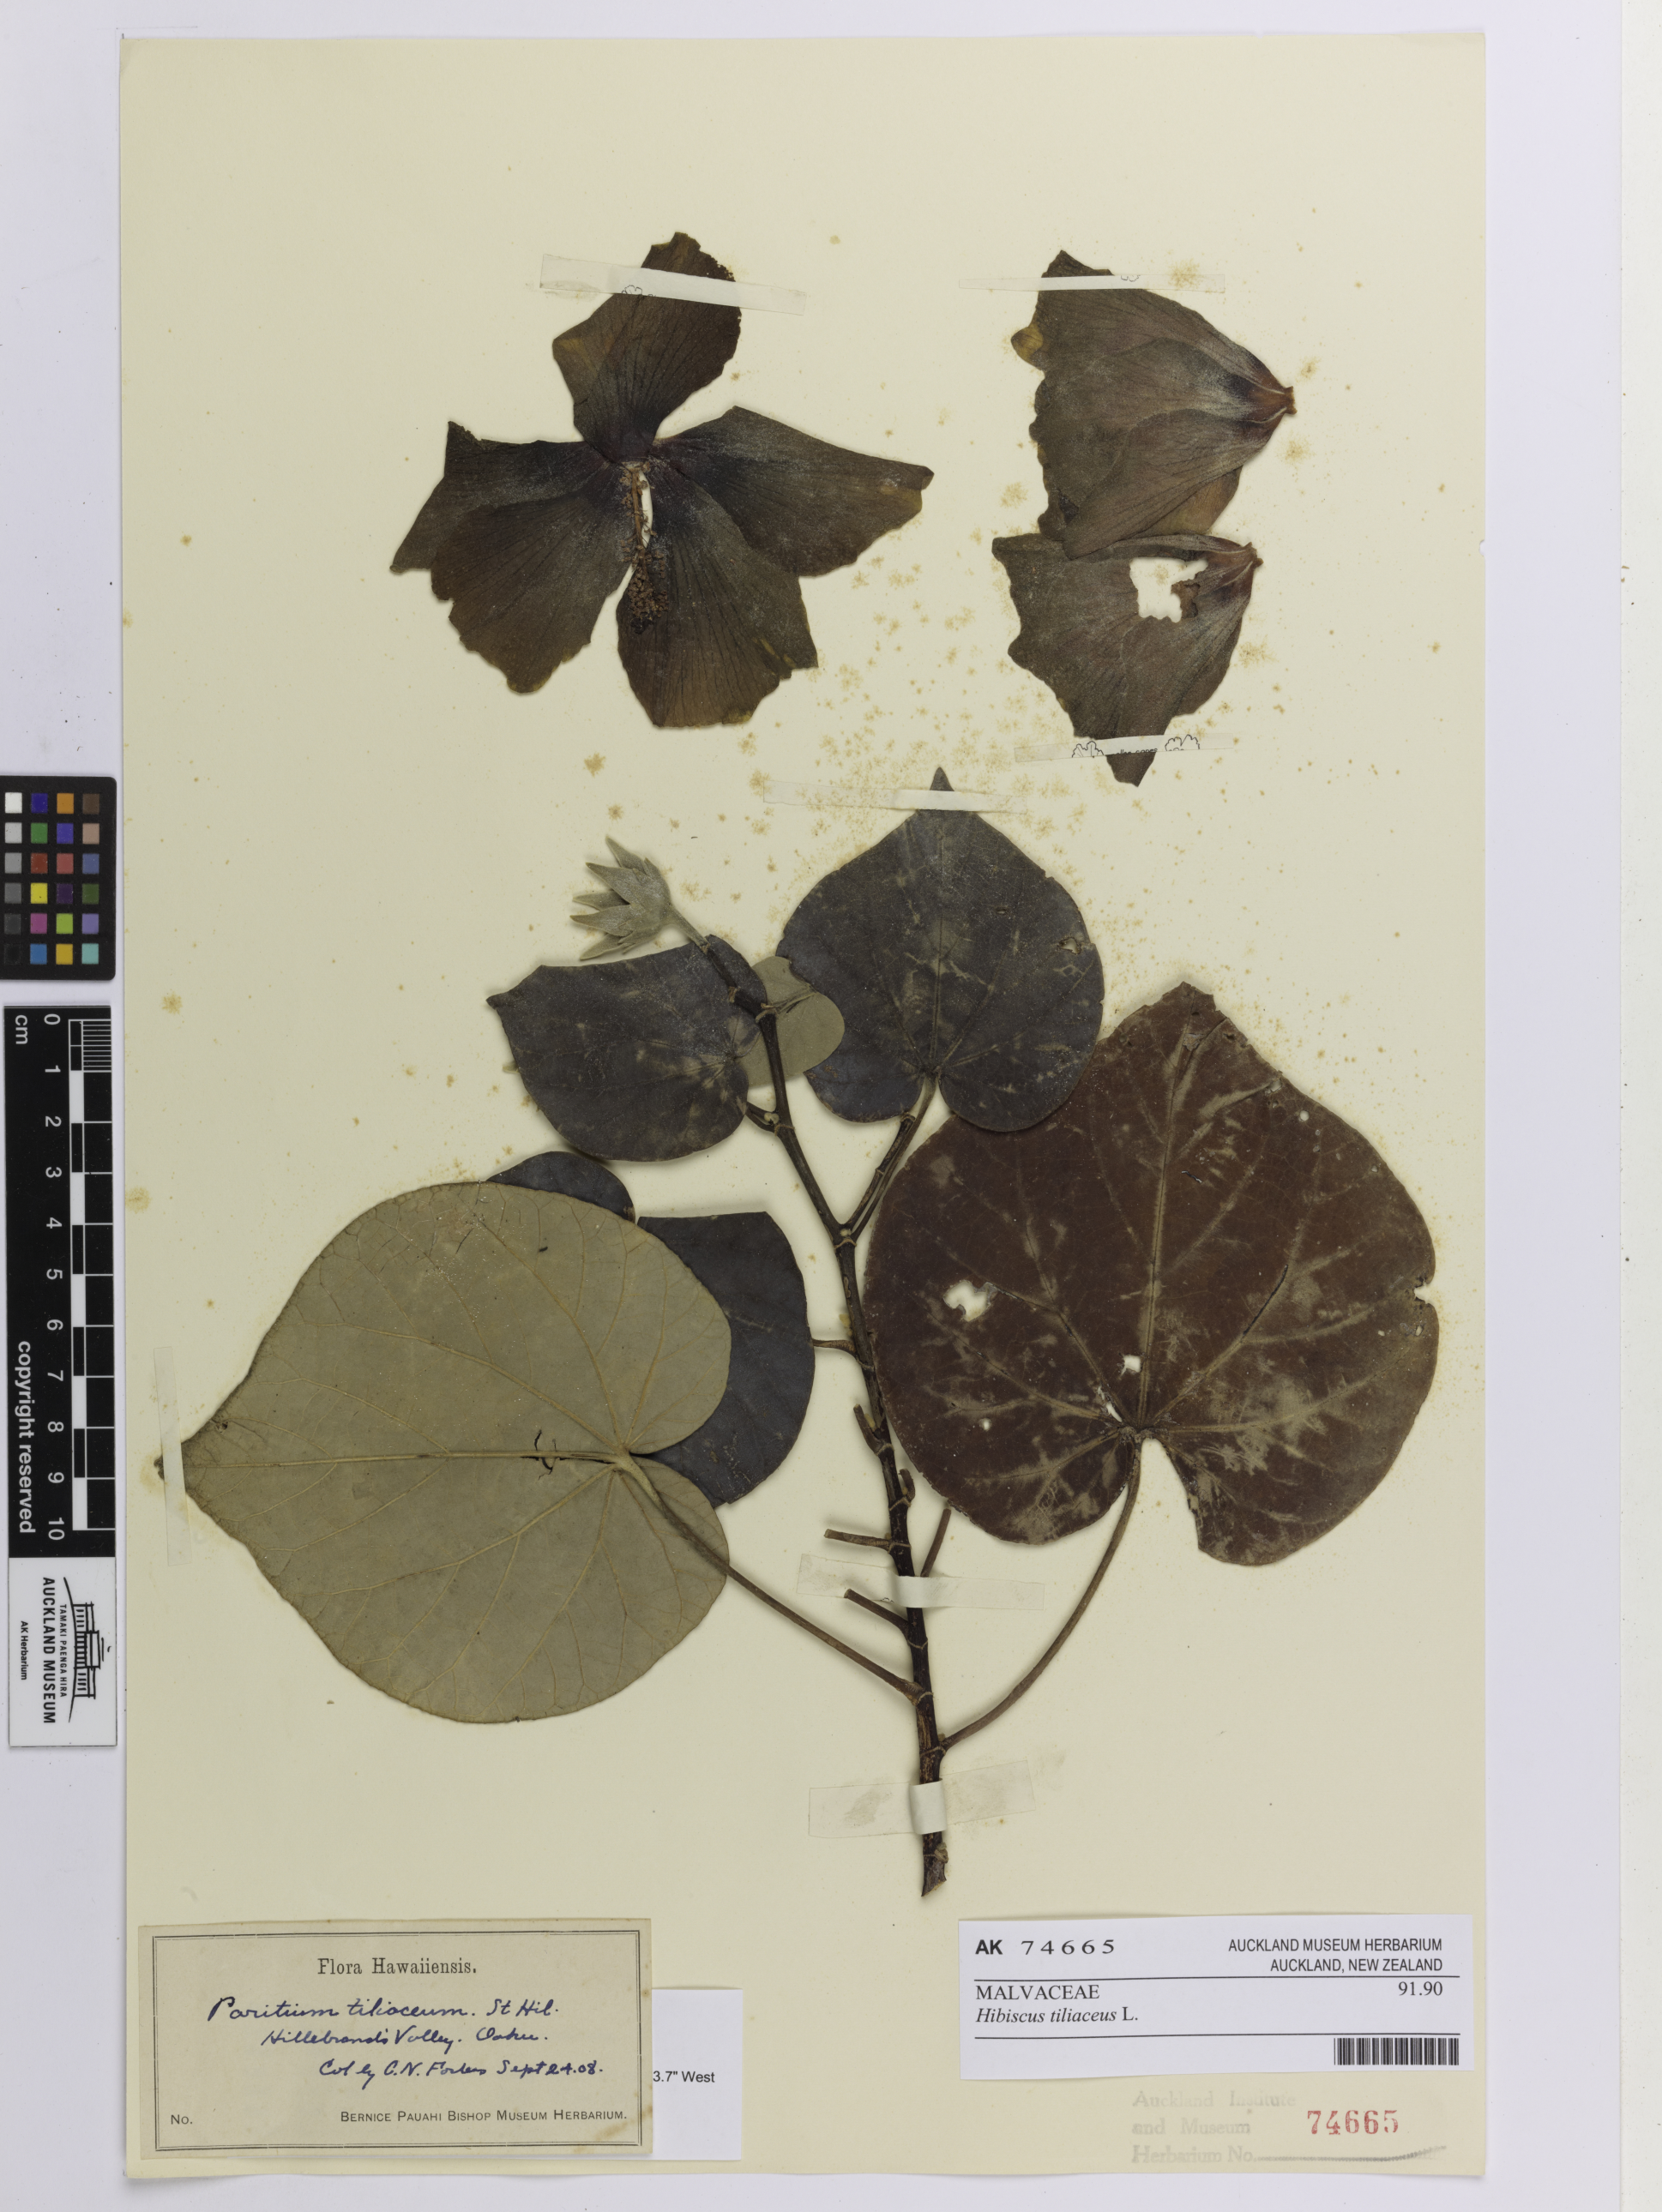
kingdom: Plantae
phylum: Tracheophyta
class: Magnoliopsida
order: Malvales
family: Malvaceae
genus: Talipariti
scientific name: Talipariti tiliaceum
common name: Sea hibiscus
